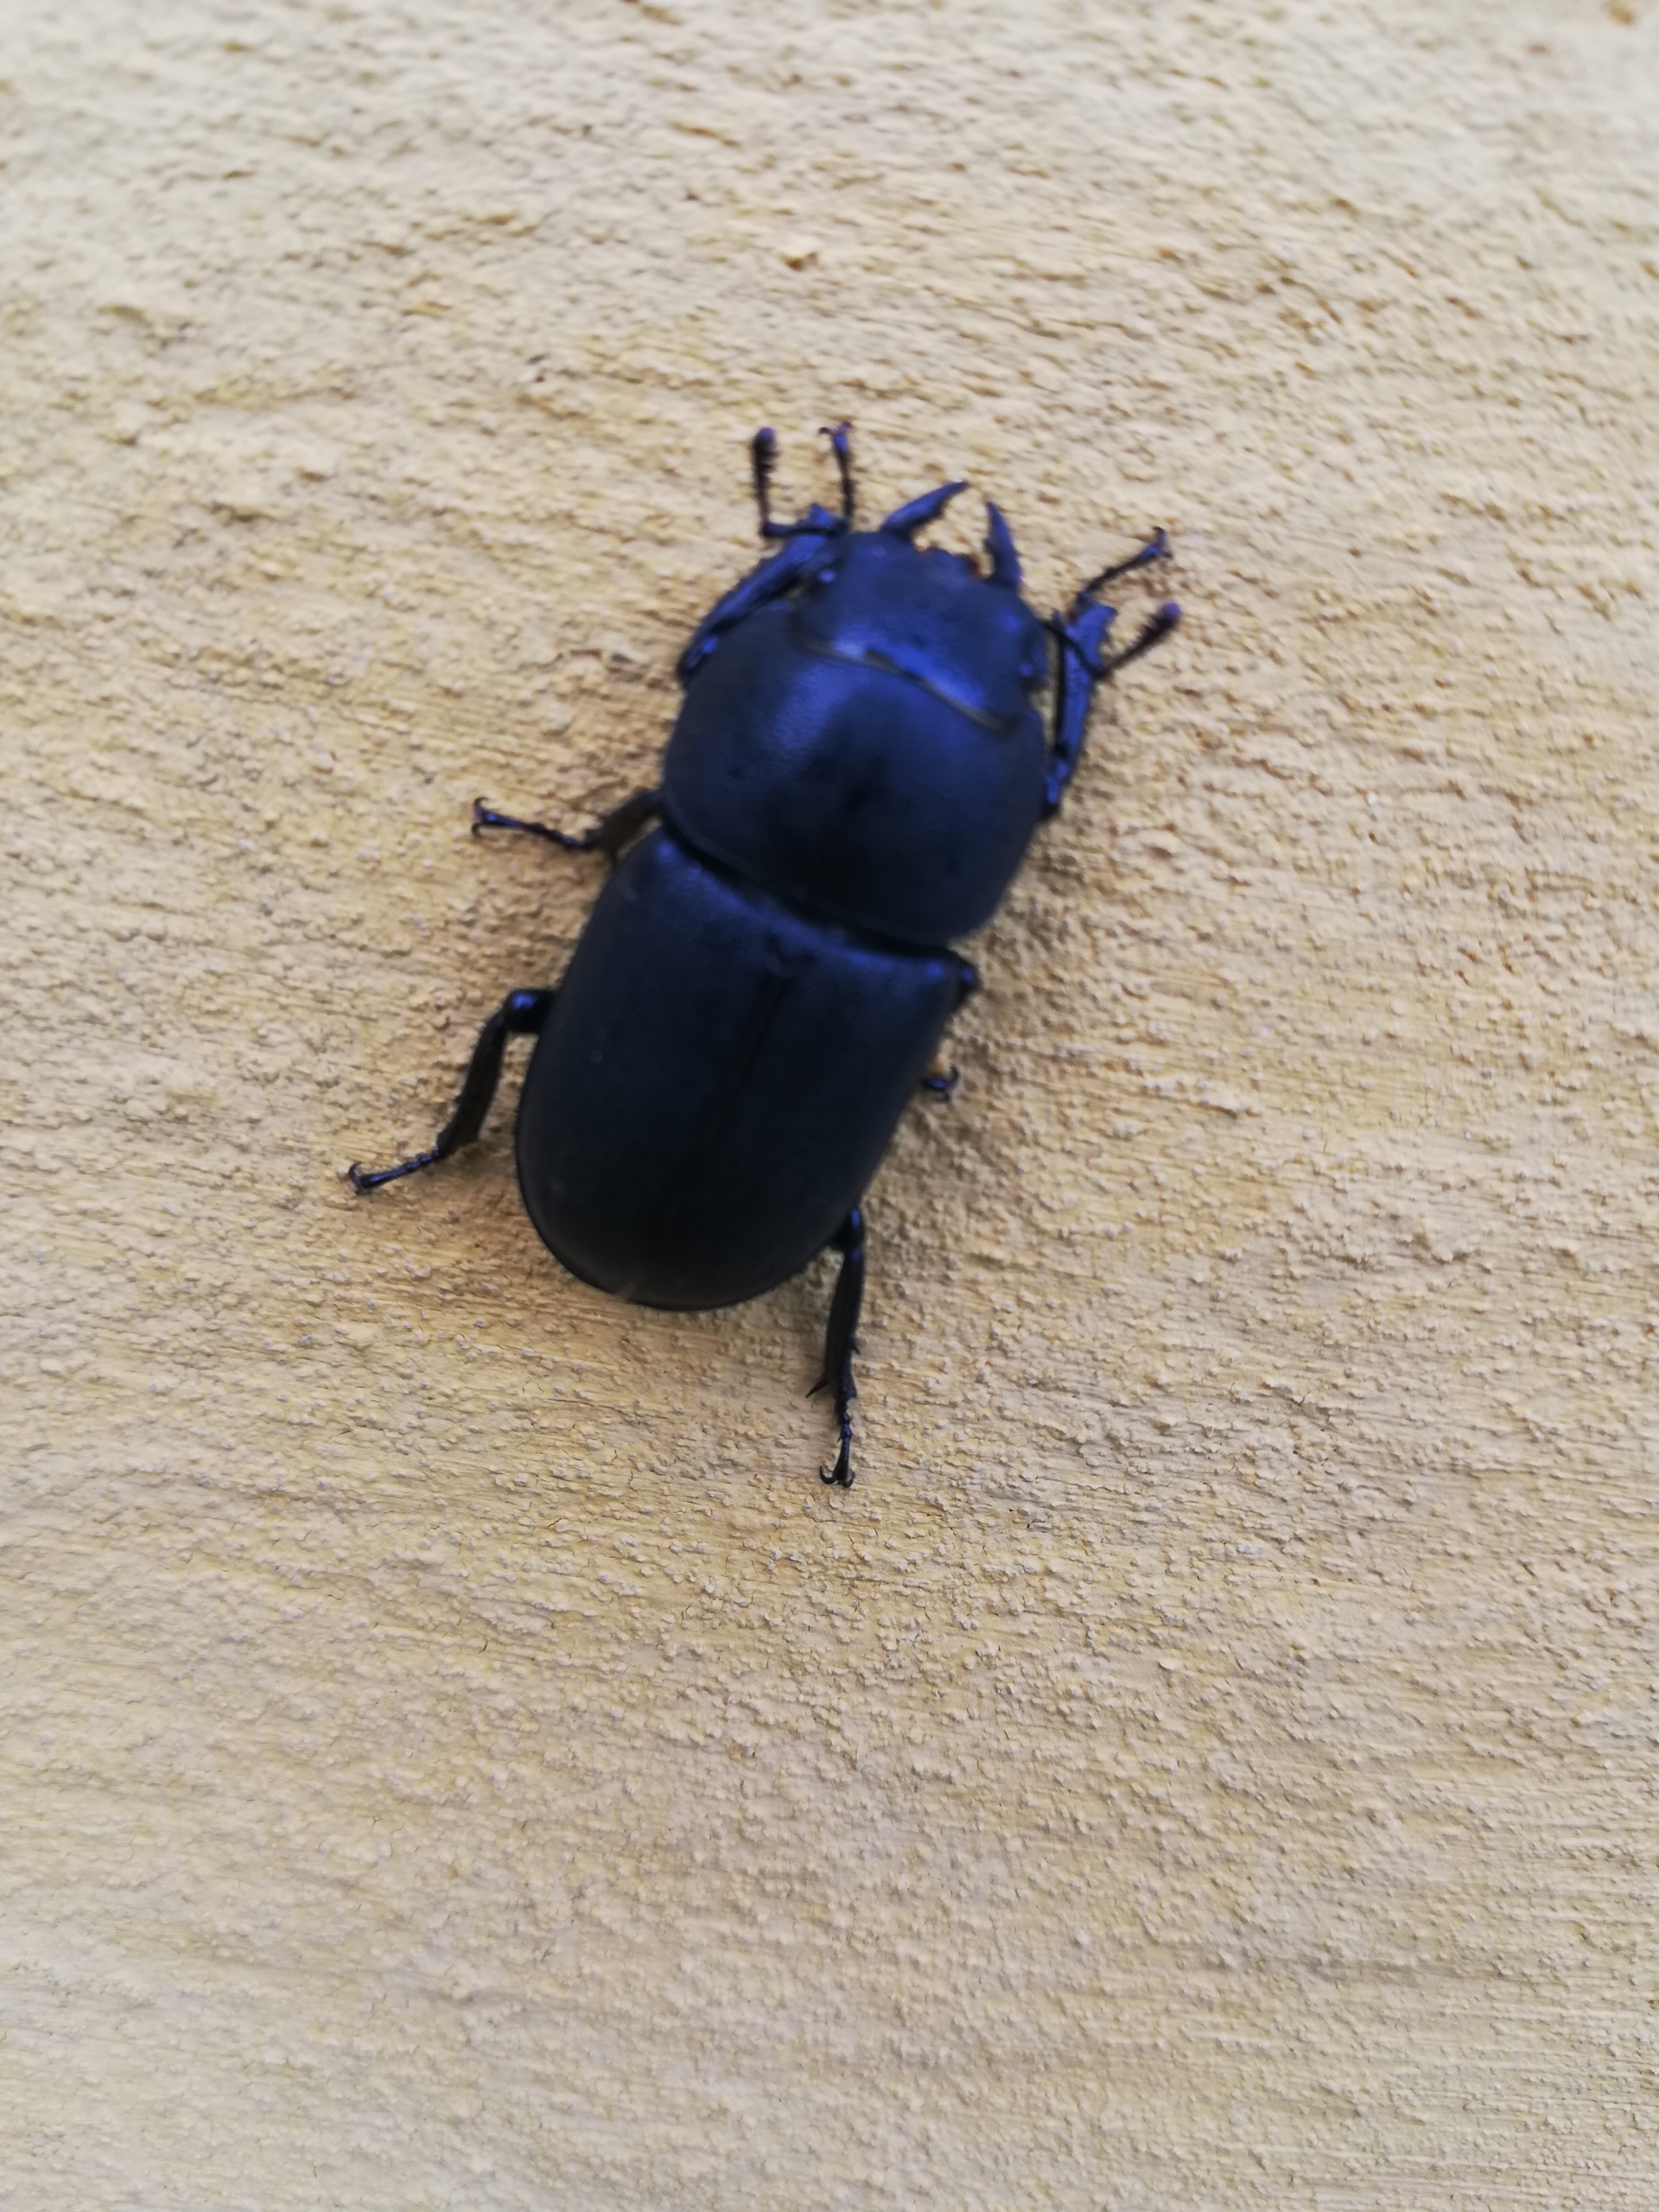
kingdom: Animalia
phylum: Arthropoda
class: Insecta
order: Coleoptera
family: Lucanidae
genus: Dorcus
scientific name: Dorcus parallelipipedus
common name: Bøghjort
